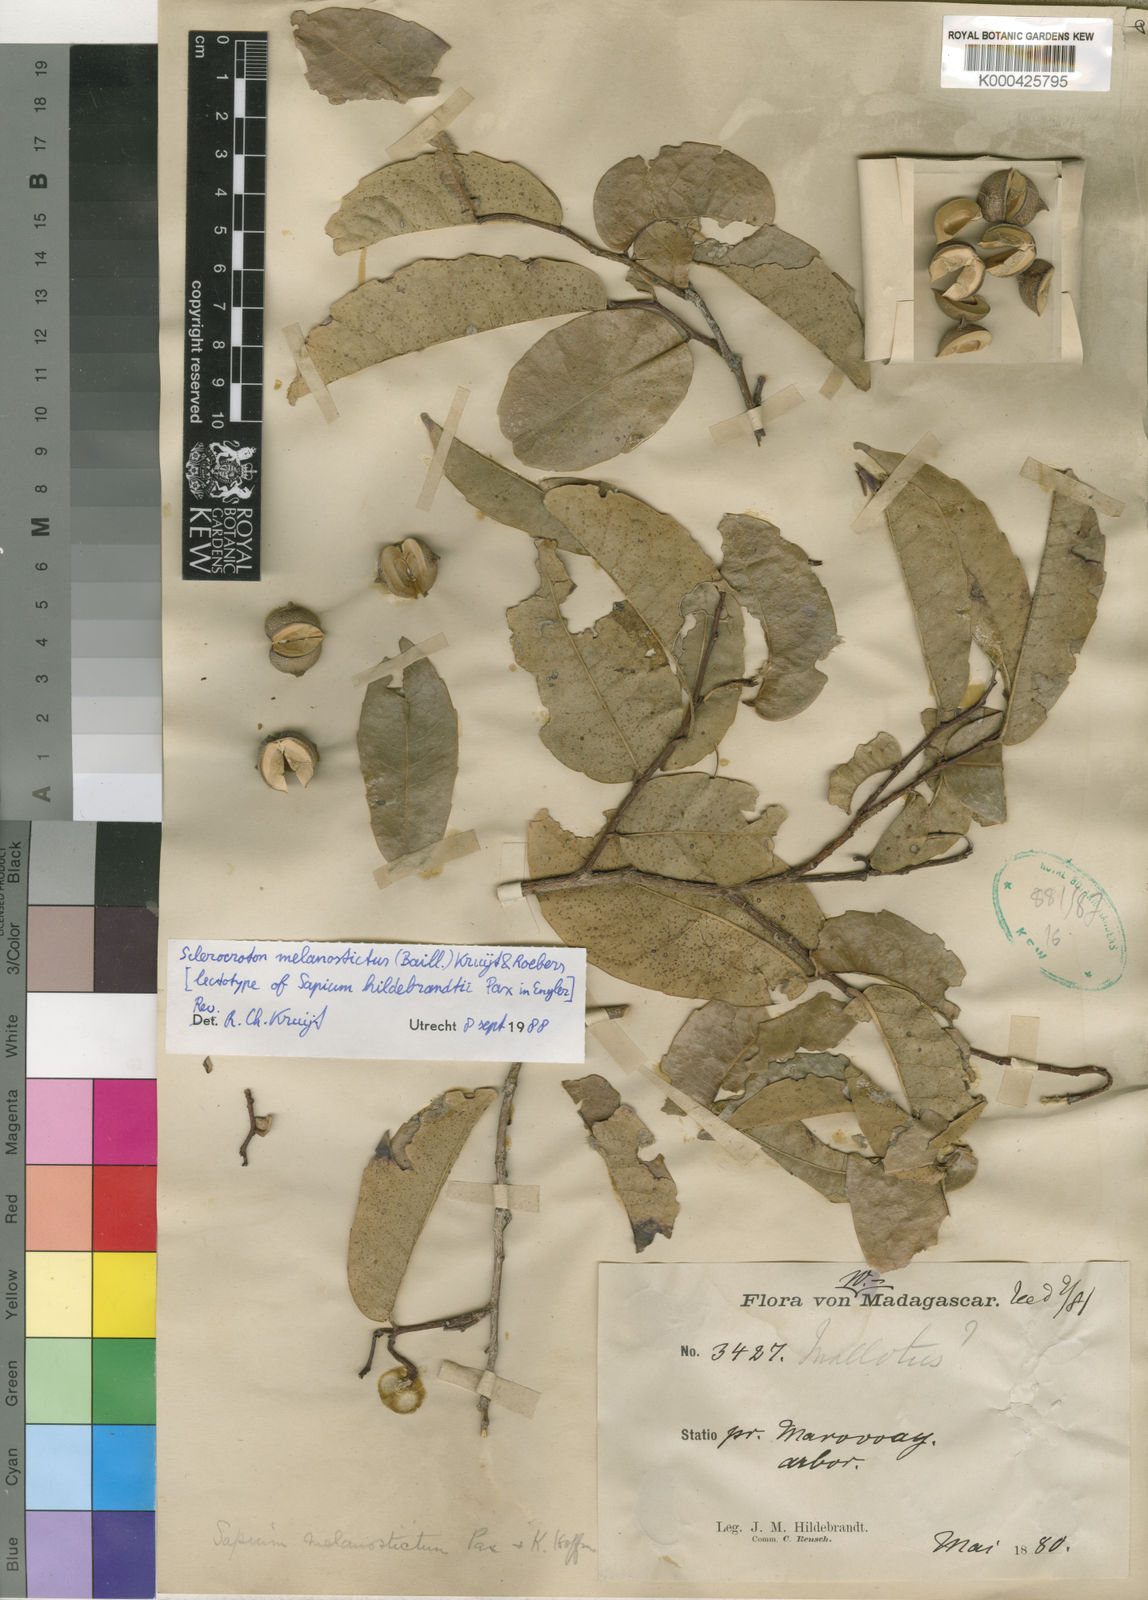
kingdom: Plantae
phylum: Tracheophyta
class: Magnoliopsida
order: Malpighiales
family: Euphorbiaceae
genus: Sclerocroton
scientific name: Sclerocroton melanostictus
